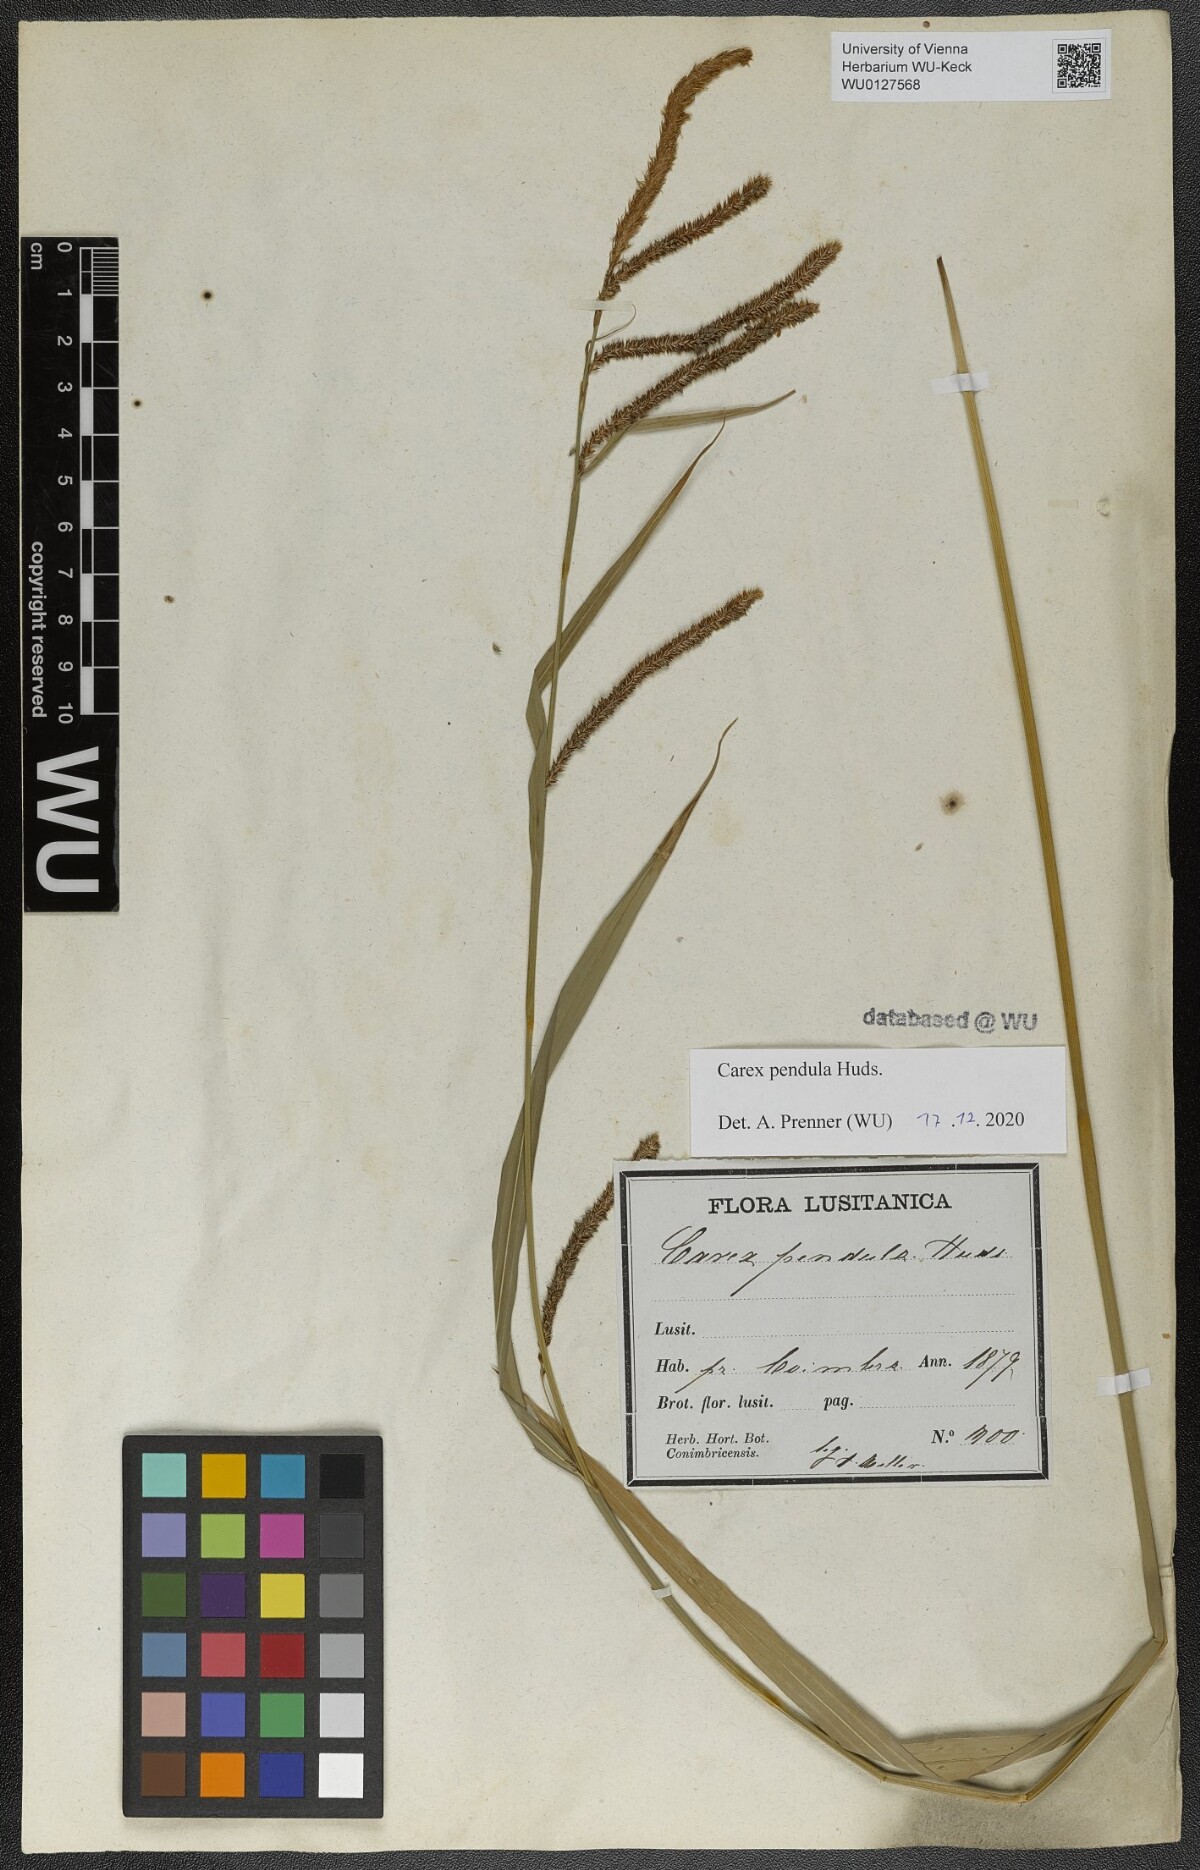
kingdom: Plantae
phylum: Tracheophyta
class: Liliopsida
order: Poales
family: Cyperaceae
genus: Carex
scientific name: Carex pendula
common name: Pendulous sedge
